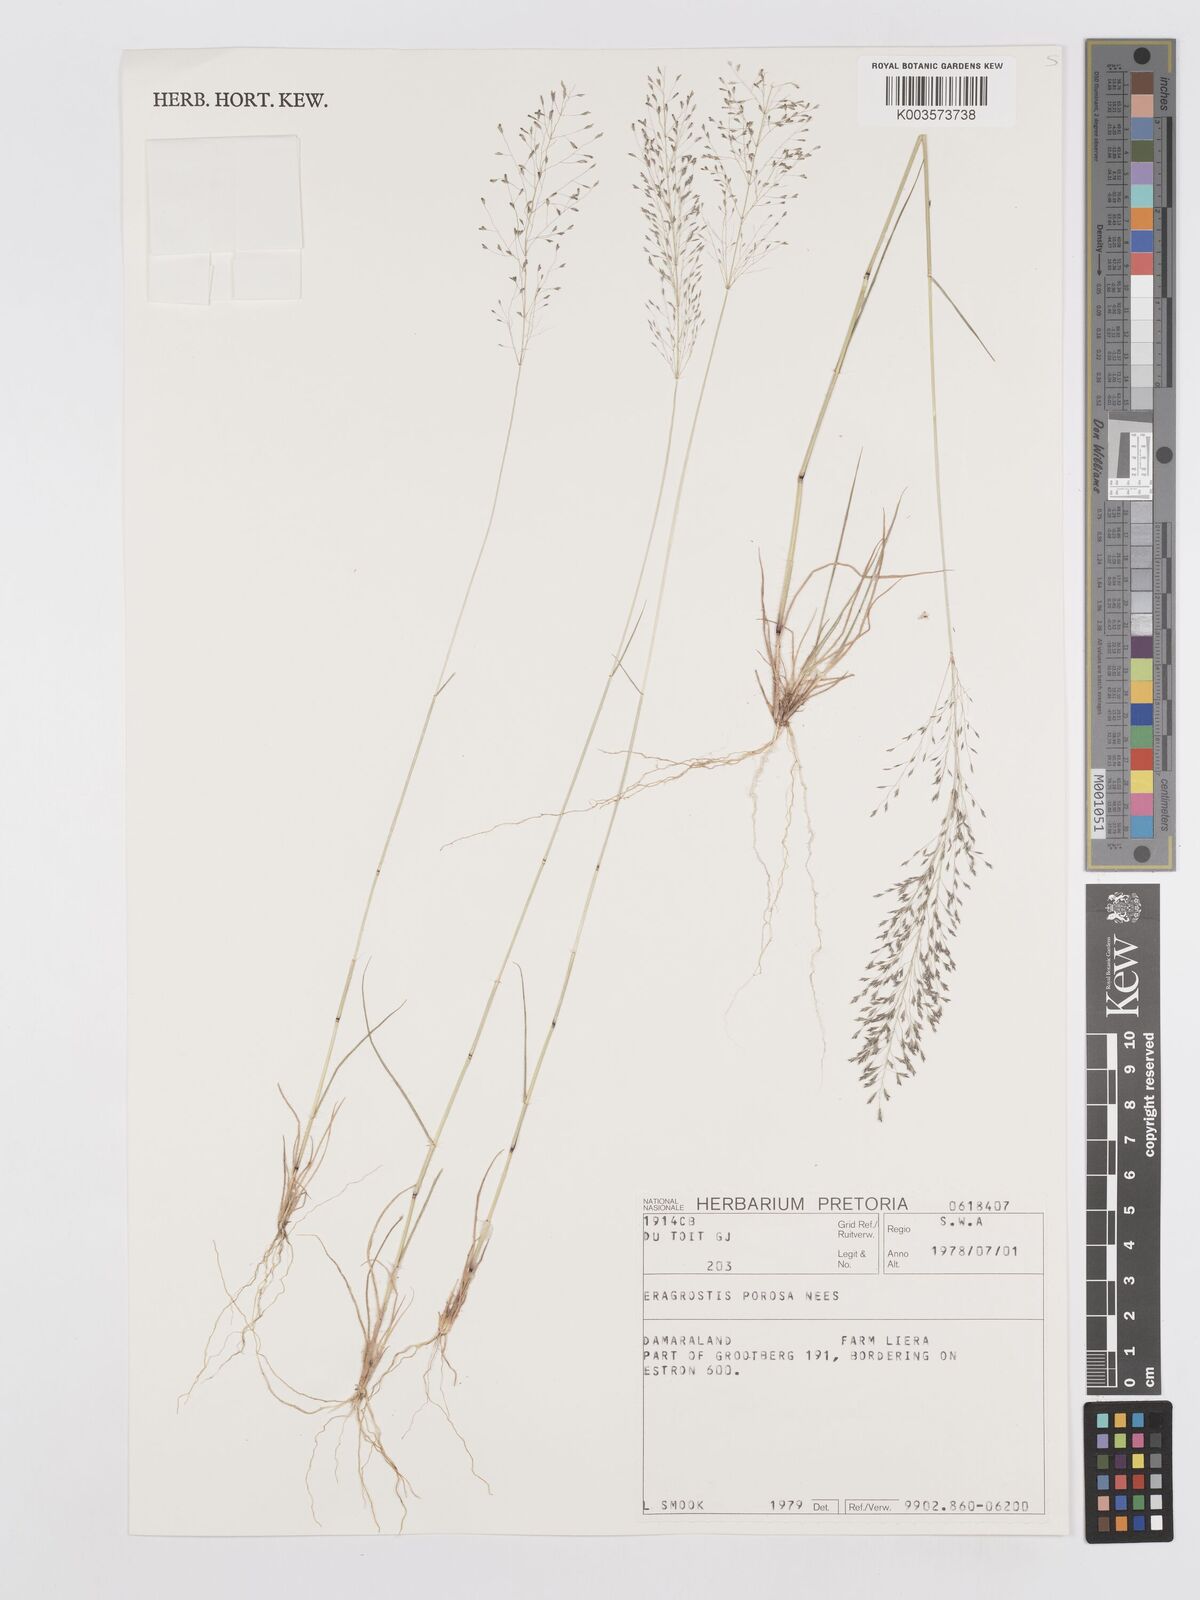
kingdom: Plantae
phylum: Tracheophyta
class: Liliopsida
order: Poales
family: Poaceae
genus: Eragrostis
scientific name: Eragrostis porosa
